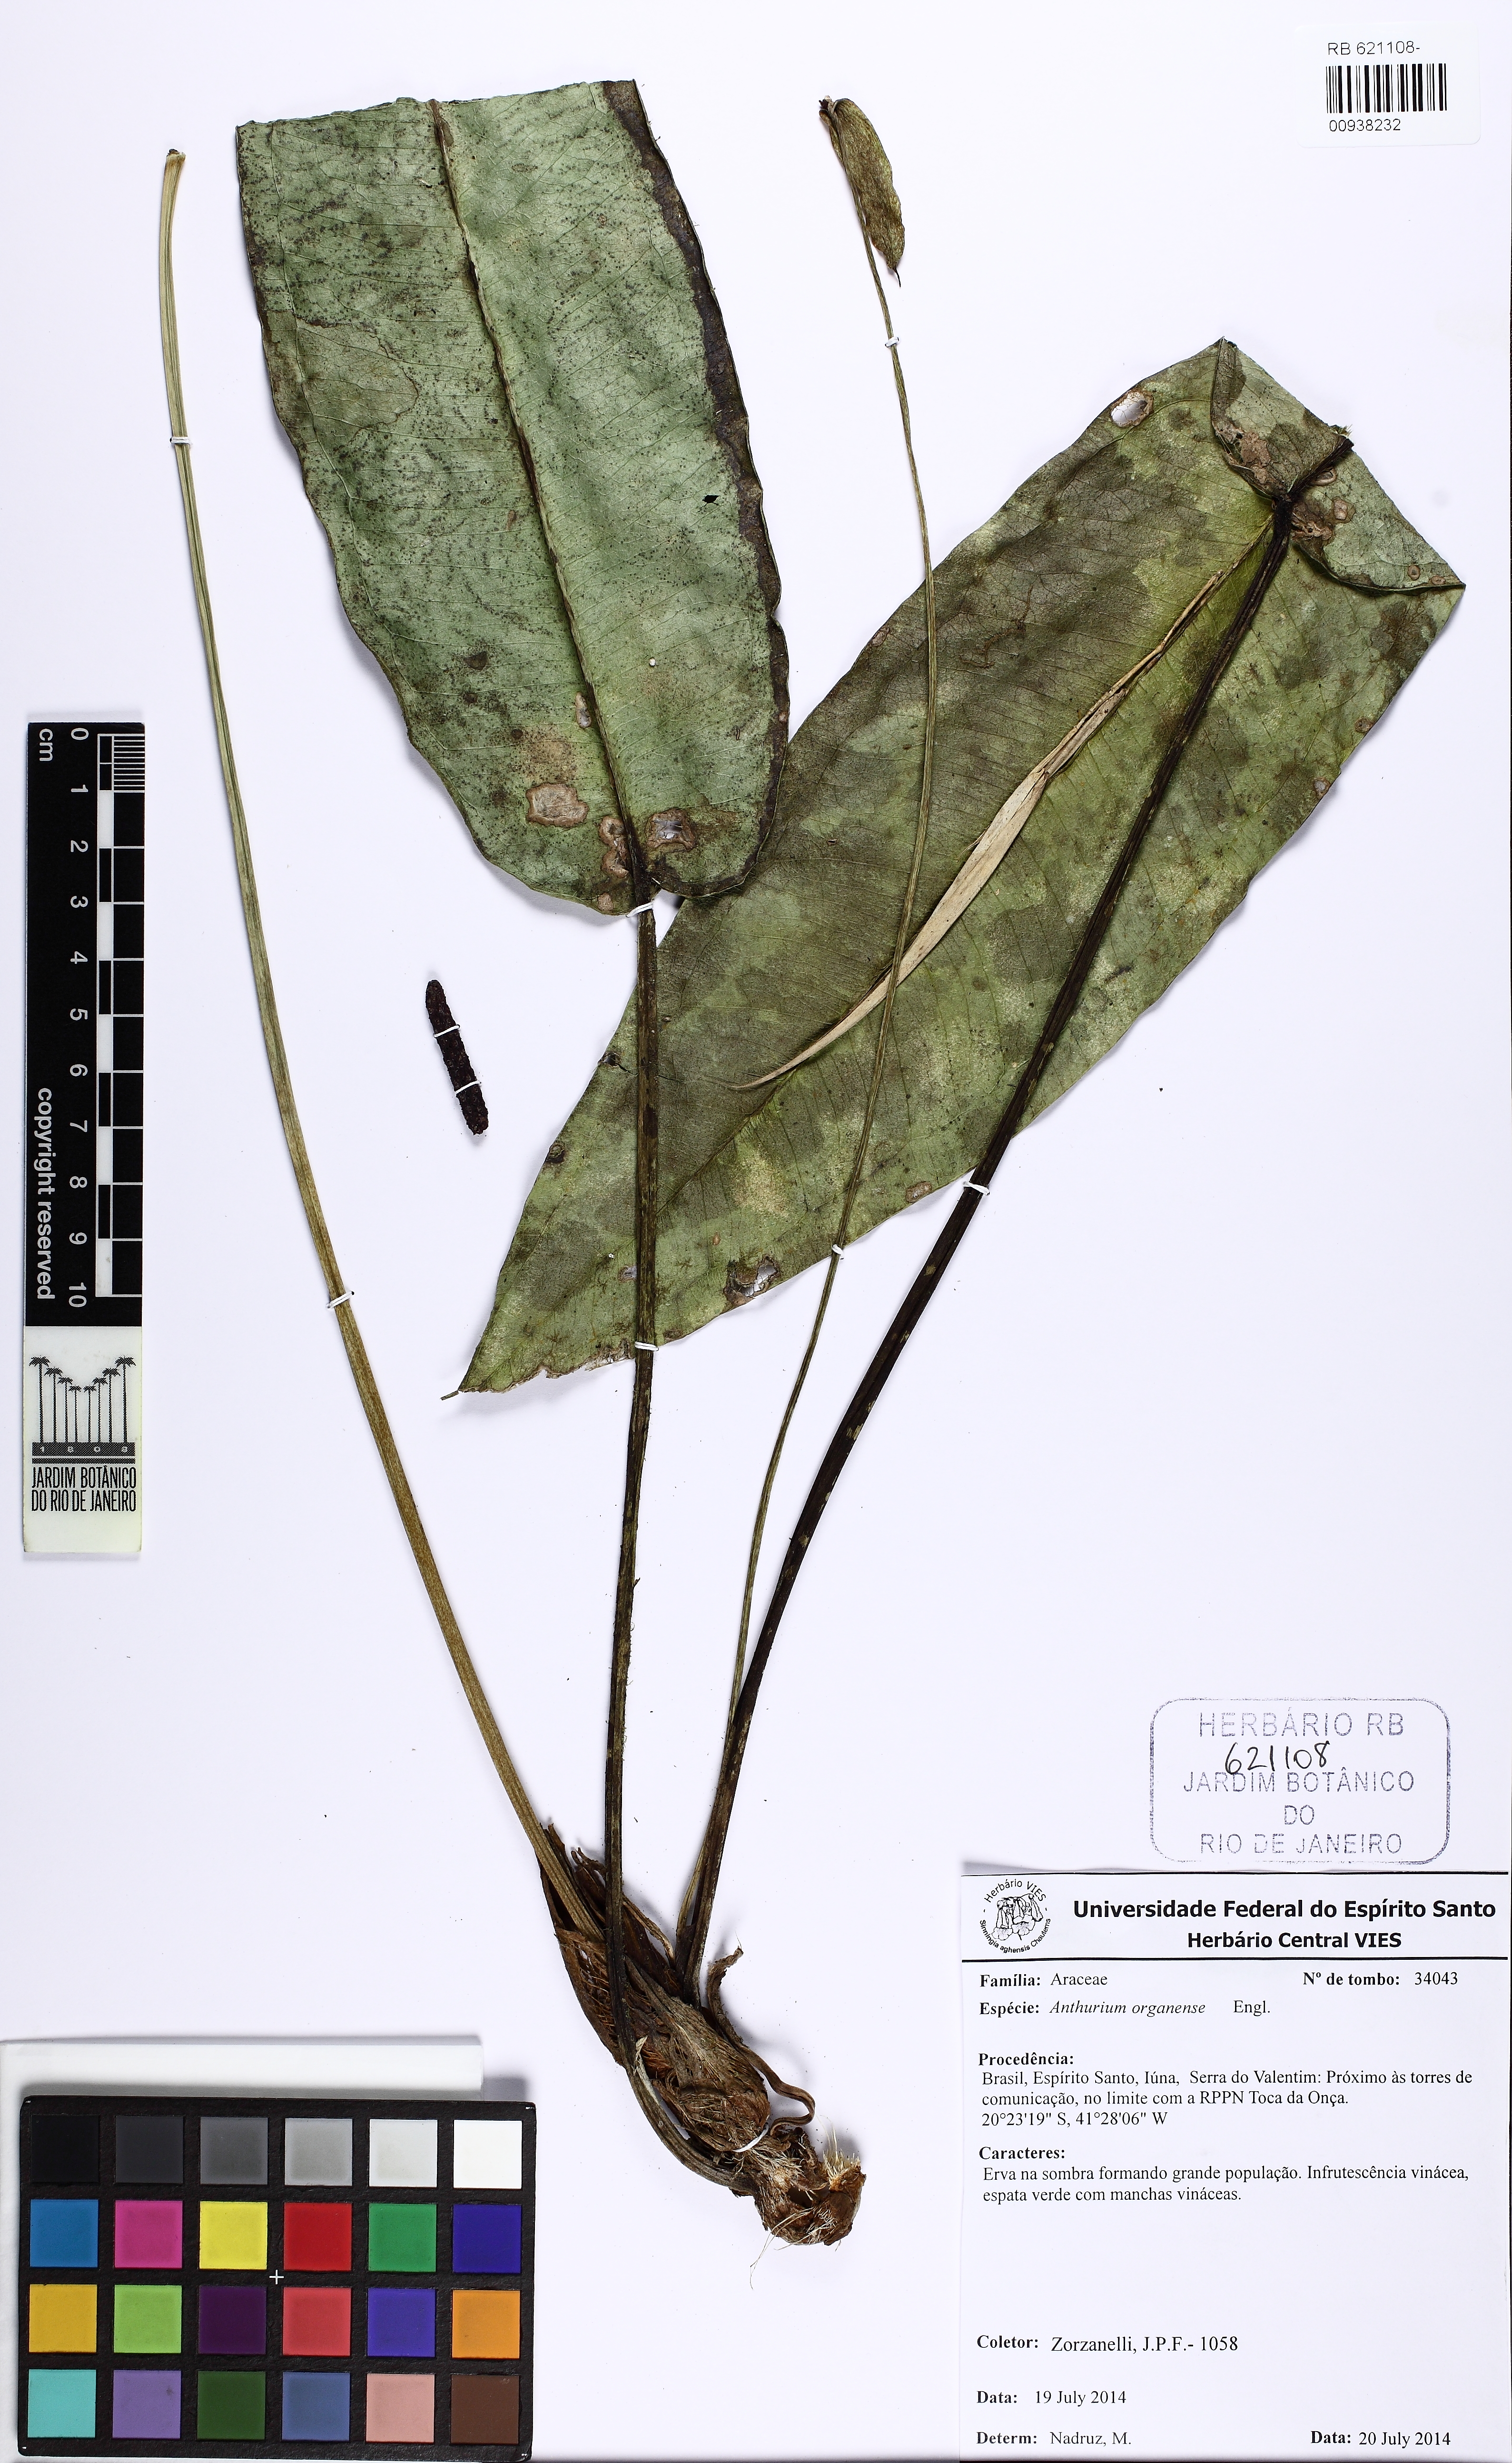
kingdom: Plantae
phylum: Tracheophyta
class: Liliopsida
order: Alismatales
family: Araceae
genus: Anthurium
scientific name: Anthurium organense
